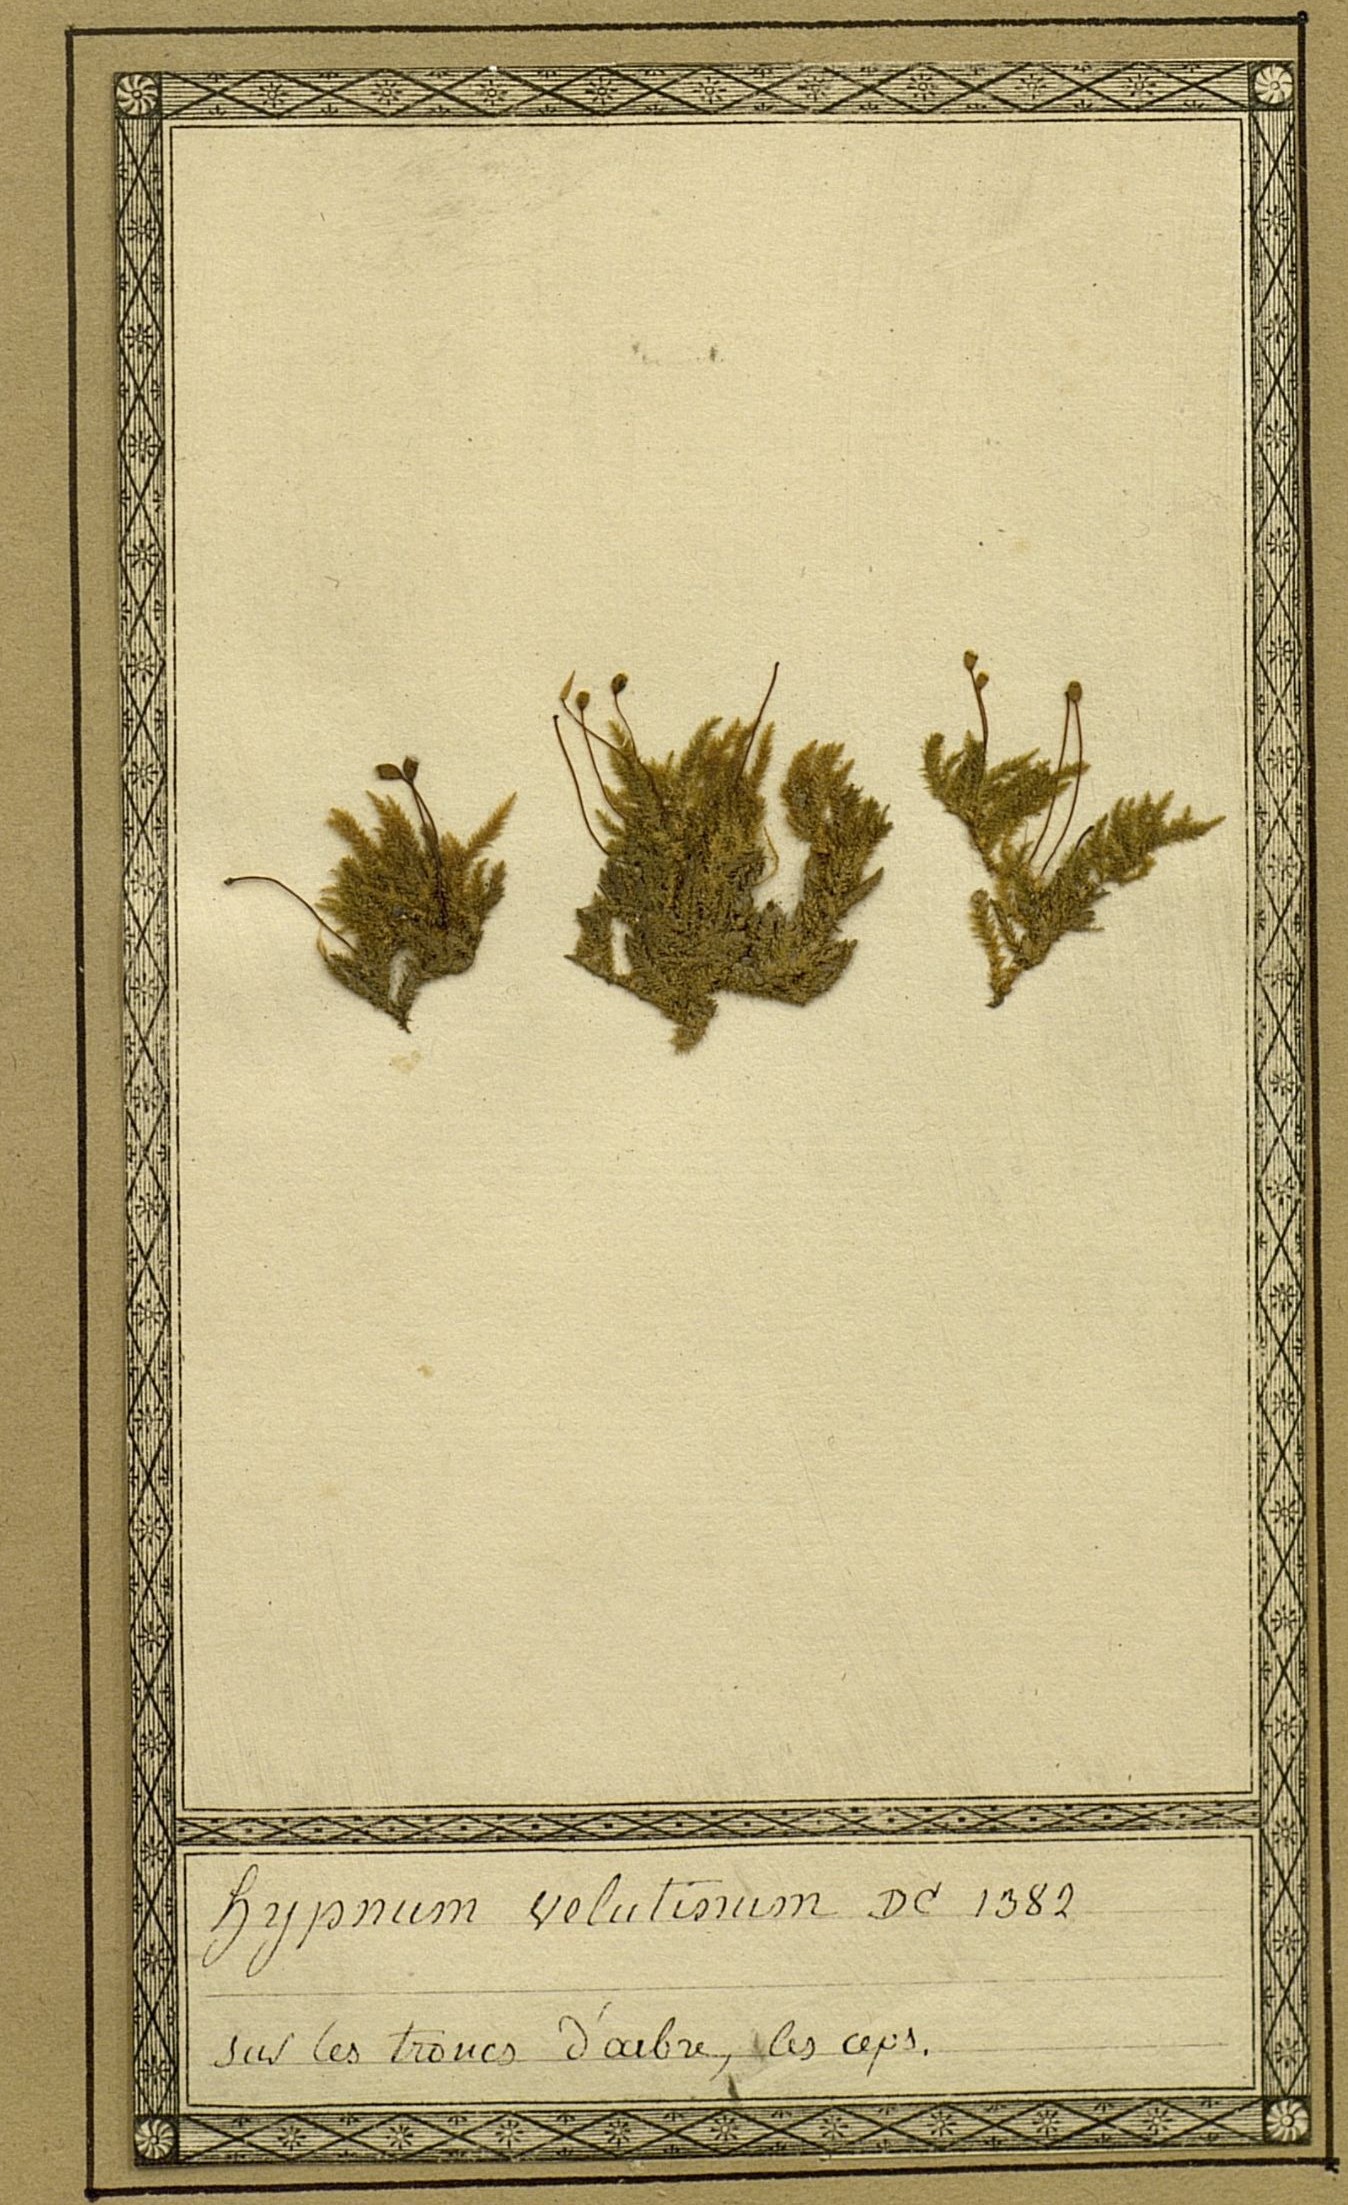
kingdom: Plantae
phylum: Bryophyta
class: Bryopsida
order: Hypnales
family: Brachytheciaceae
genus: Brachytheciastrum
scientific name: Brachytheciastrum velutinum
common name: Velvet feather-moss
